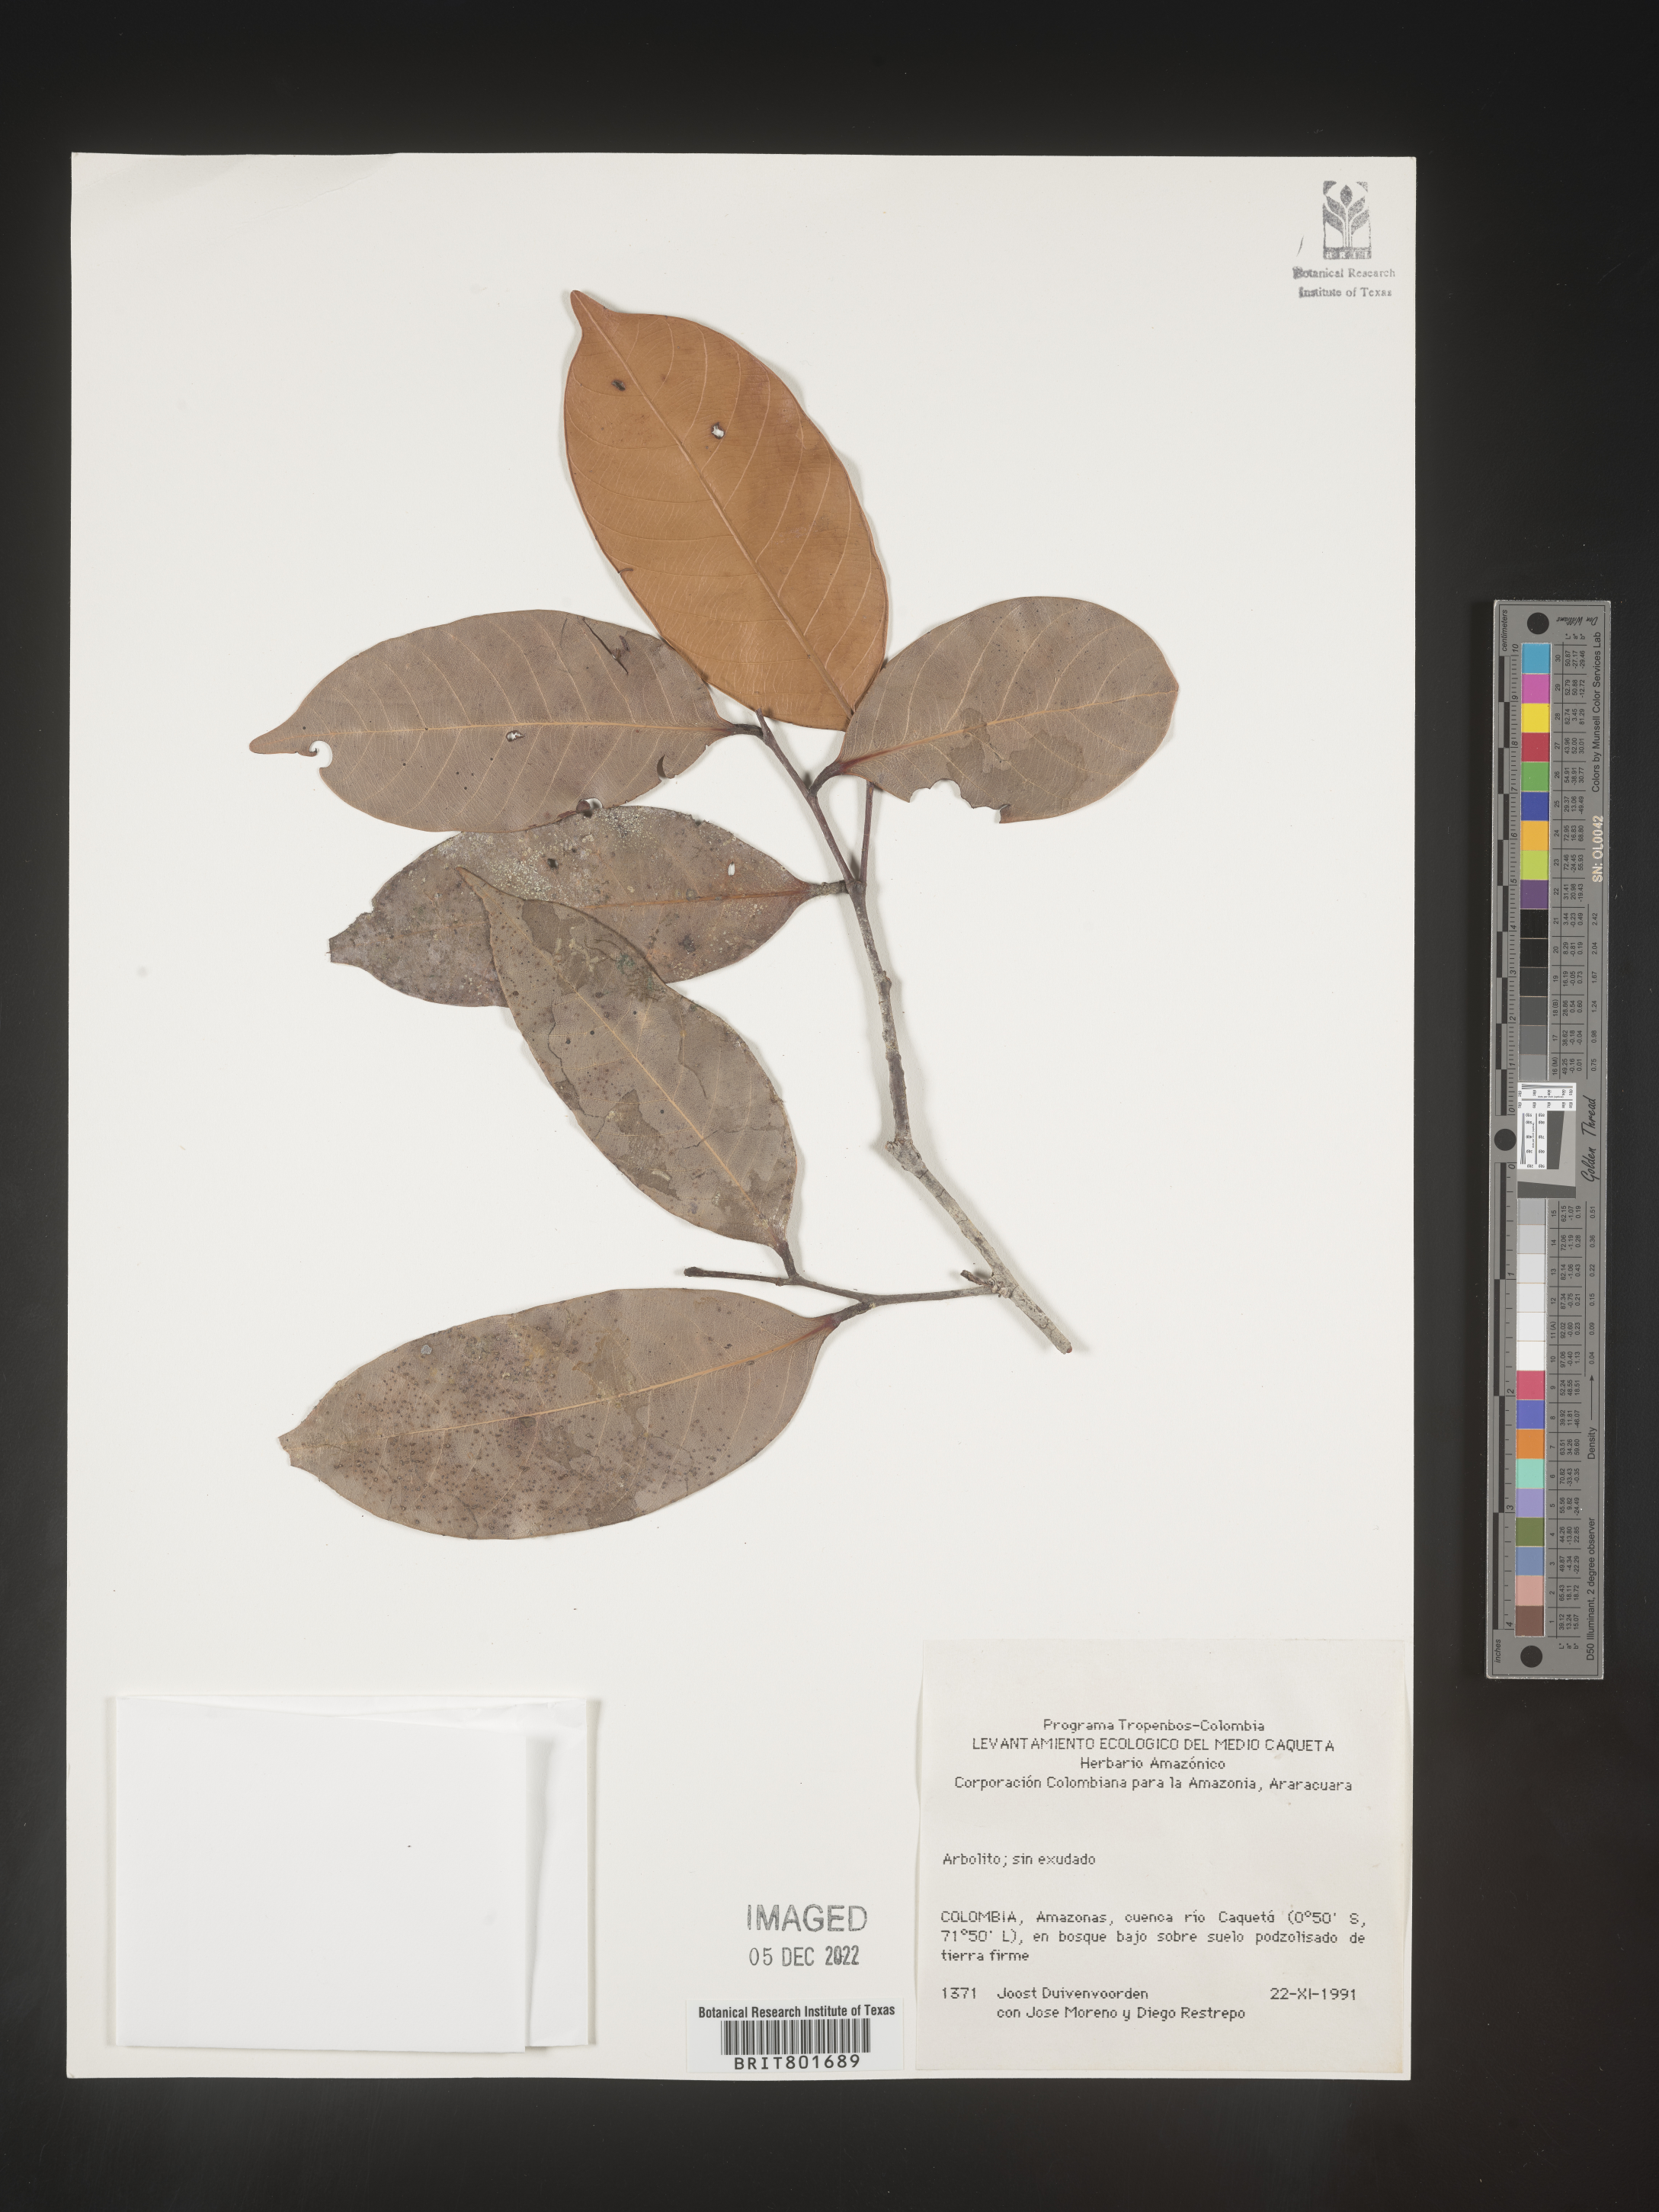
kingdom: Plantae
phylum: Tracheophyta
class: Magnoliopsida
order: Malpighiales
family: Clusiaceae
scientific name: Clusiaceae
